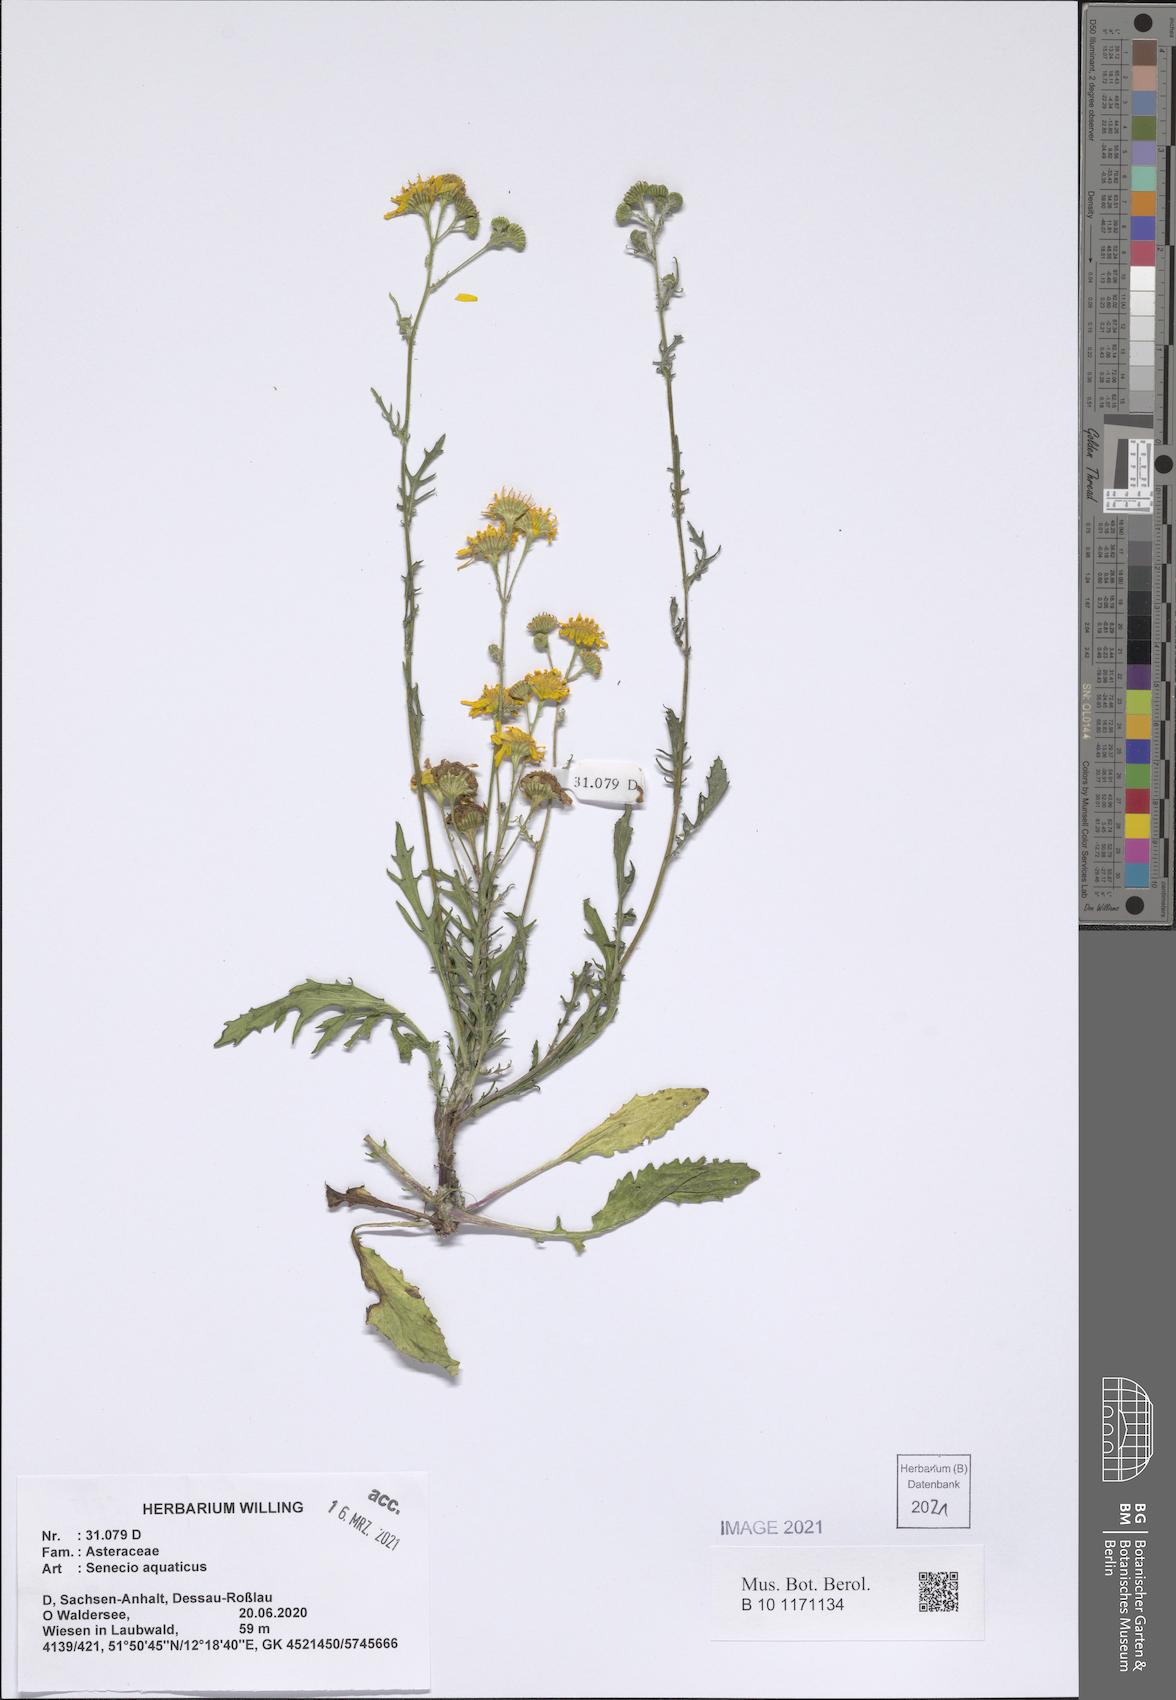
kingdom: Plantae
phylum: Tracheophyta
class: Magnoliopsida
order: Asterales
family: Asteraceae
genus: Jacobaea
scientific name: Jacobaea aquatica
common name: Water ragwort
